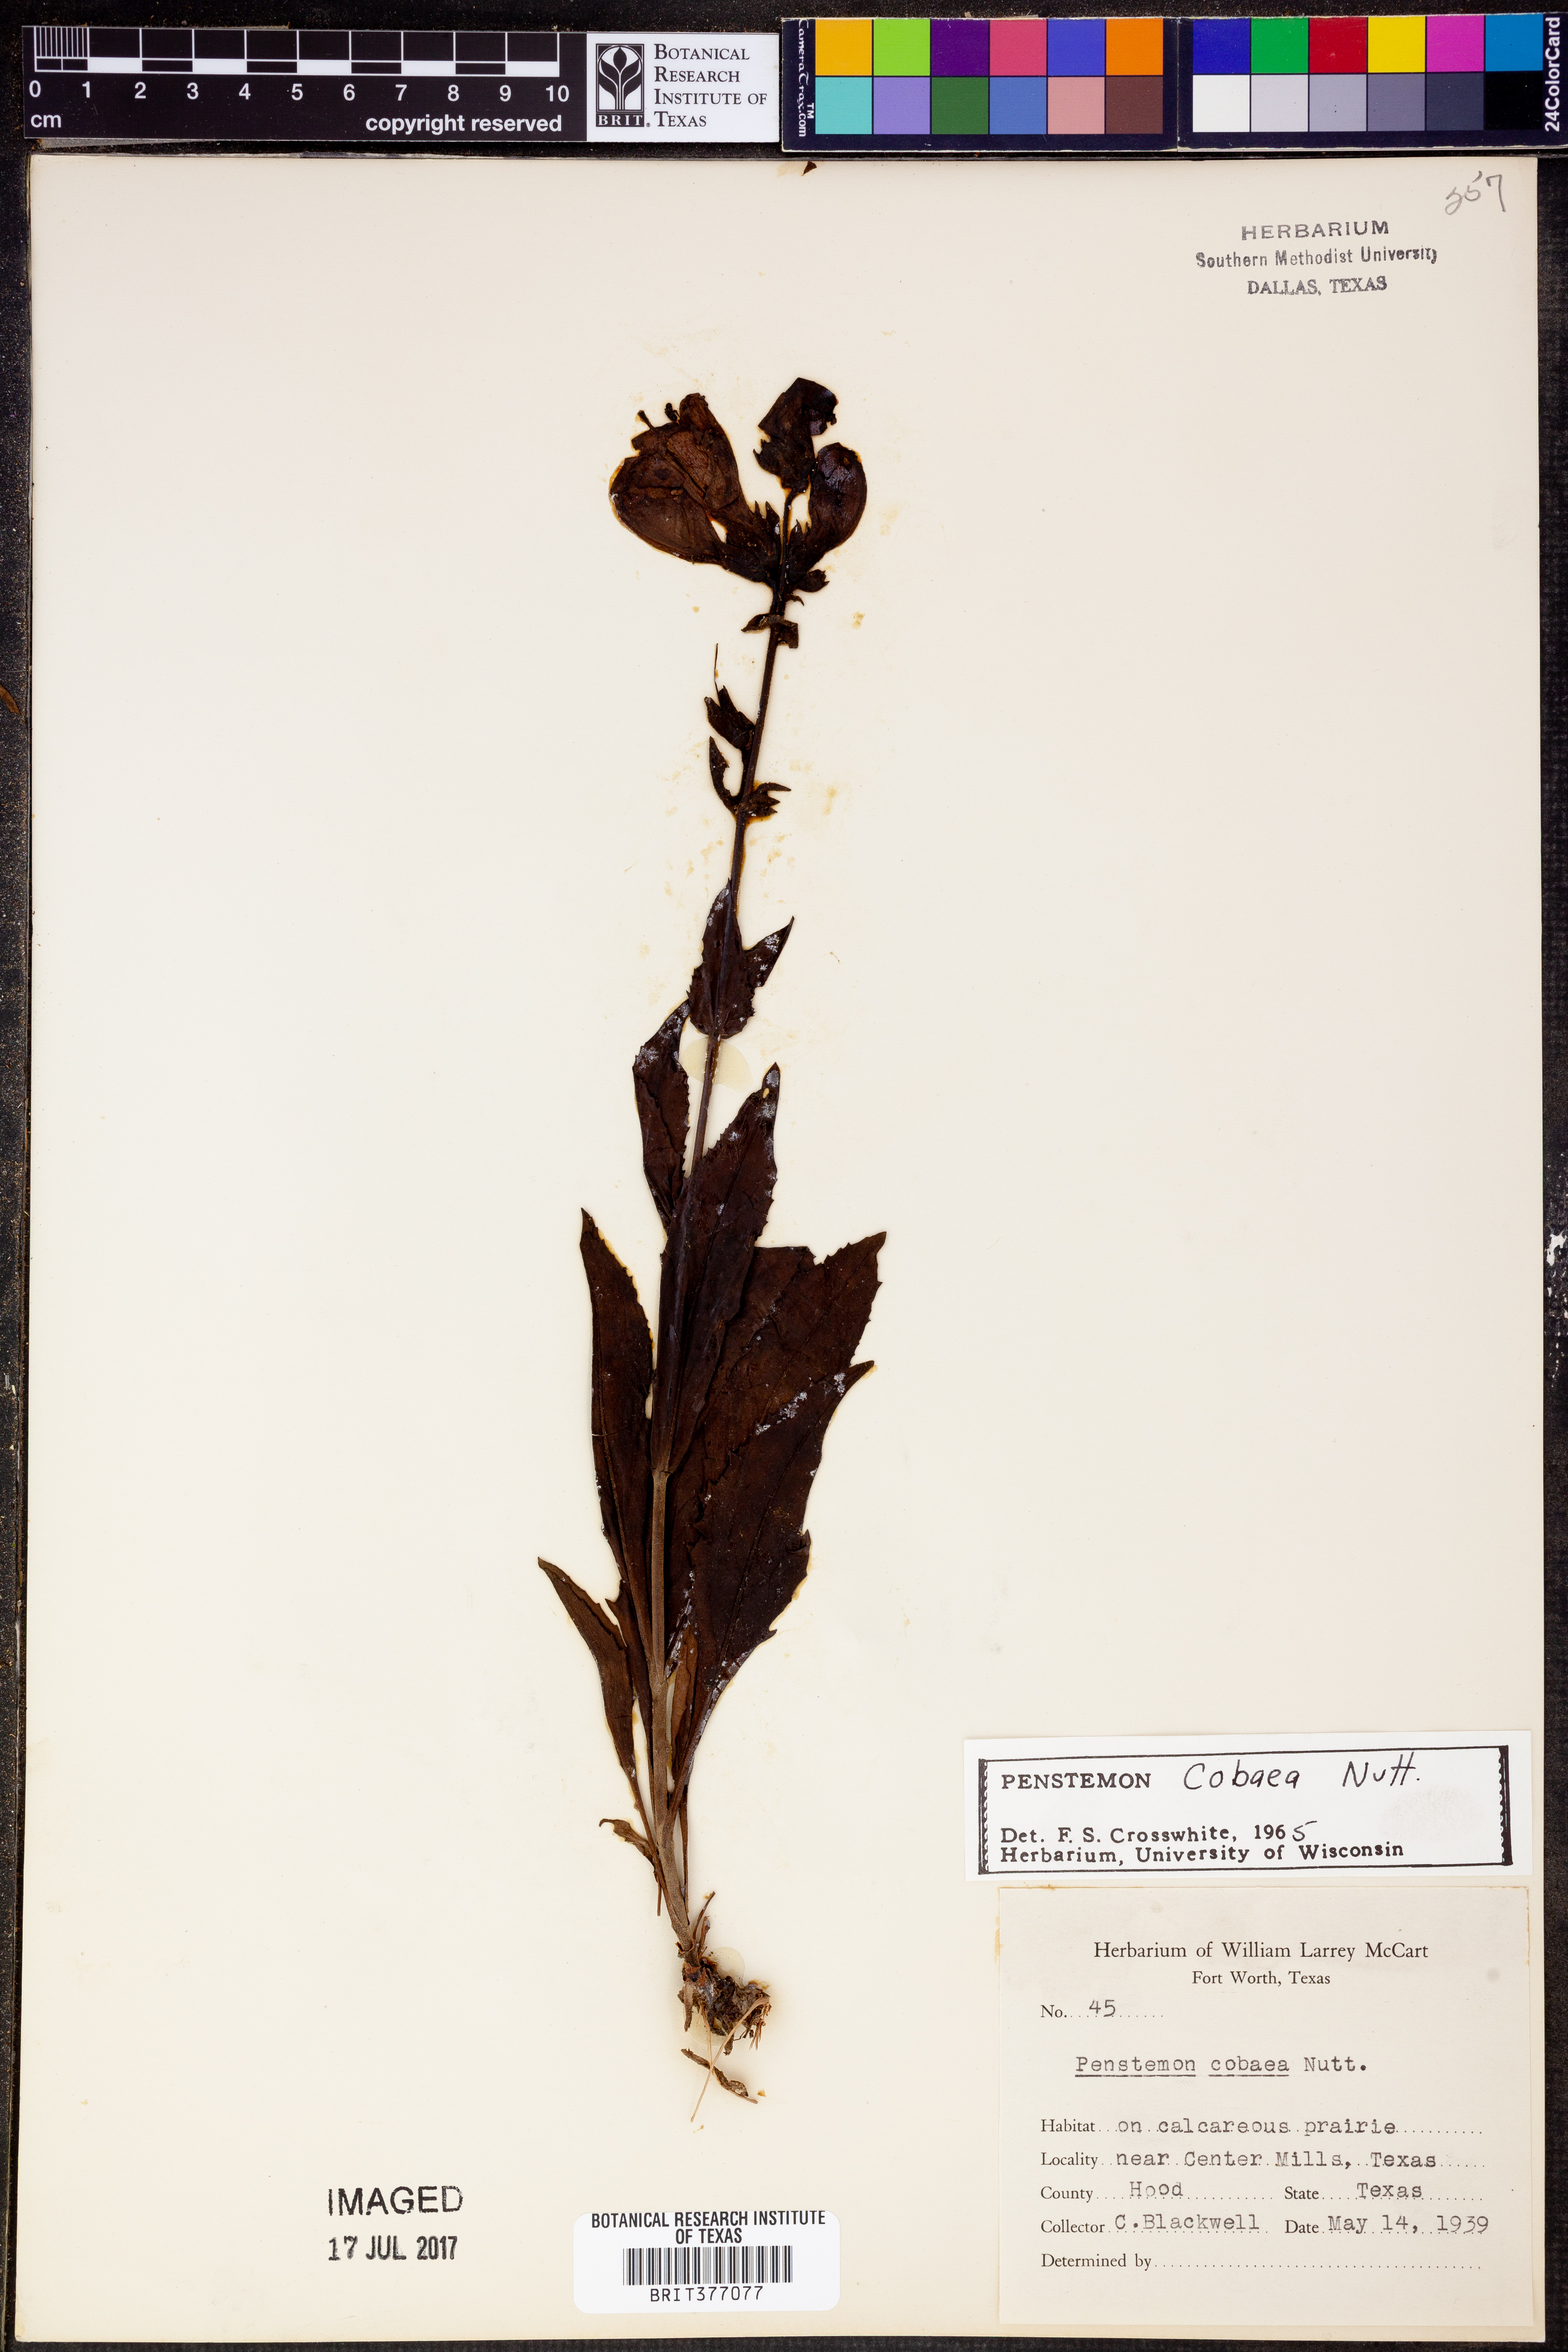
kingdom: Plantae
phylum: Tracheophyta
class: Magnoliopsida
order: Lamiales
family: Plantaginaceae
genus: Penstemon
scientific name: Penstemon cobaea
